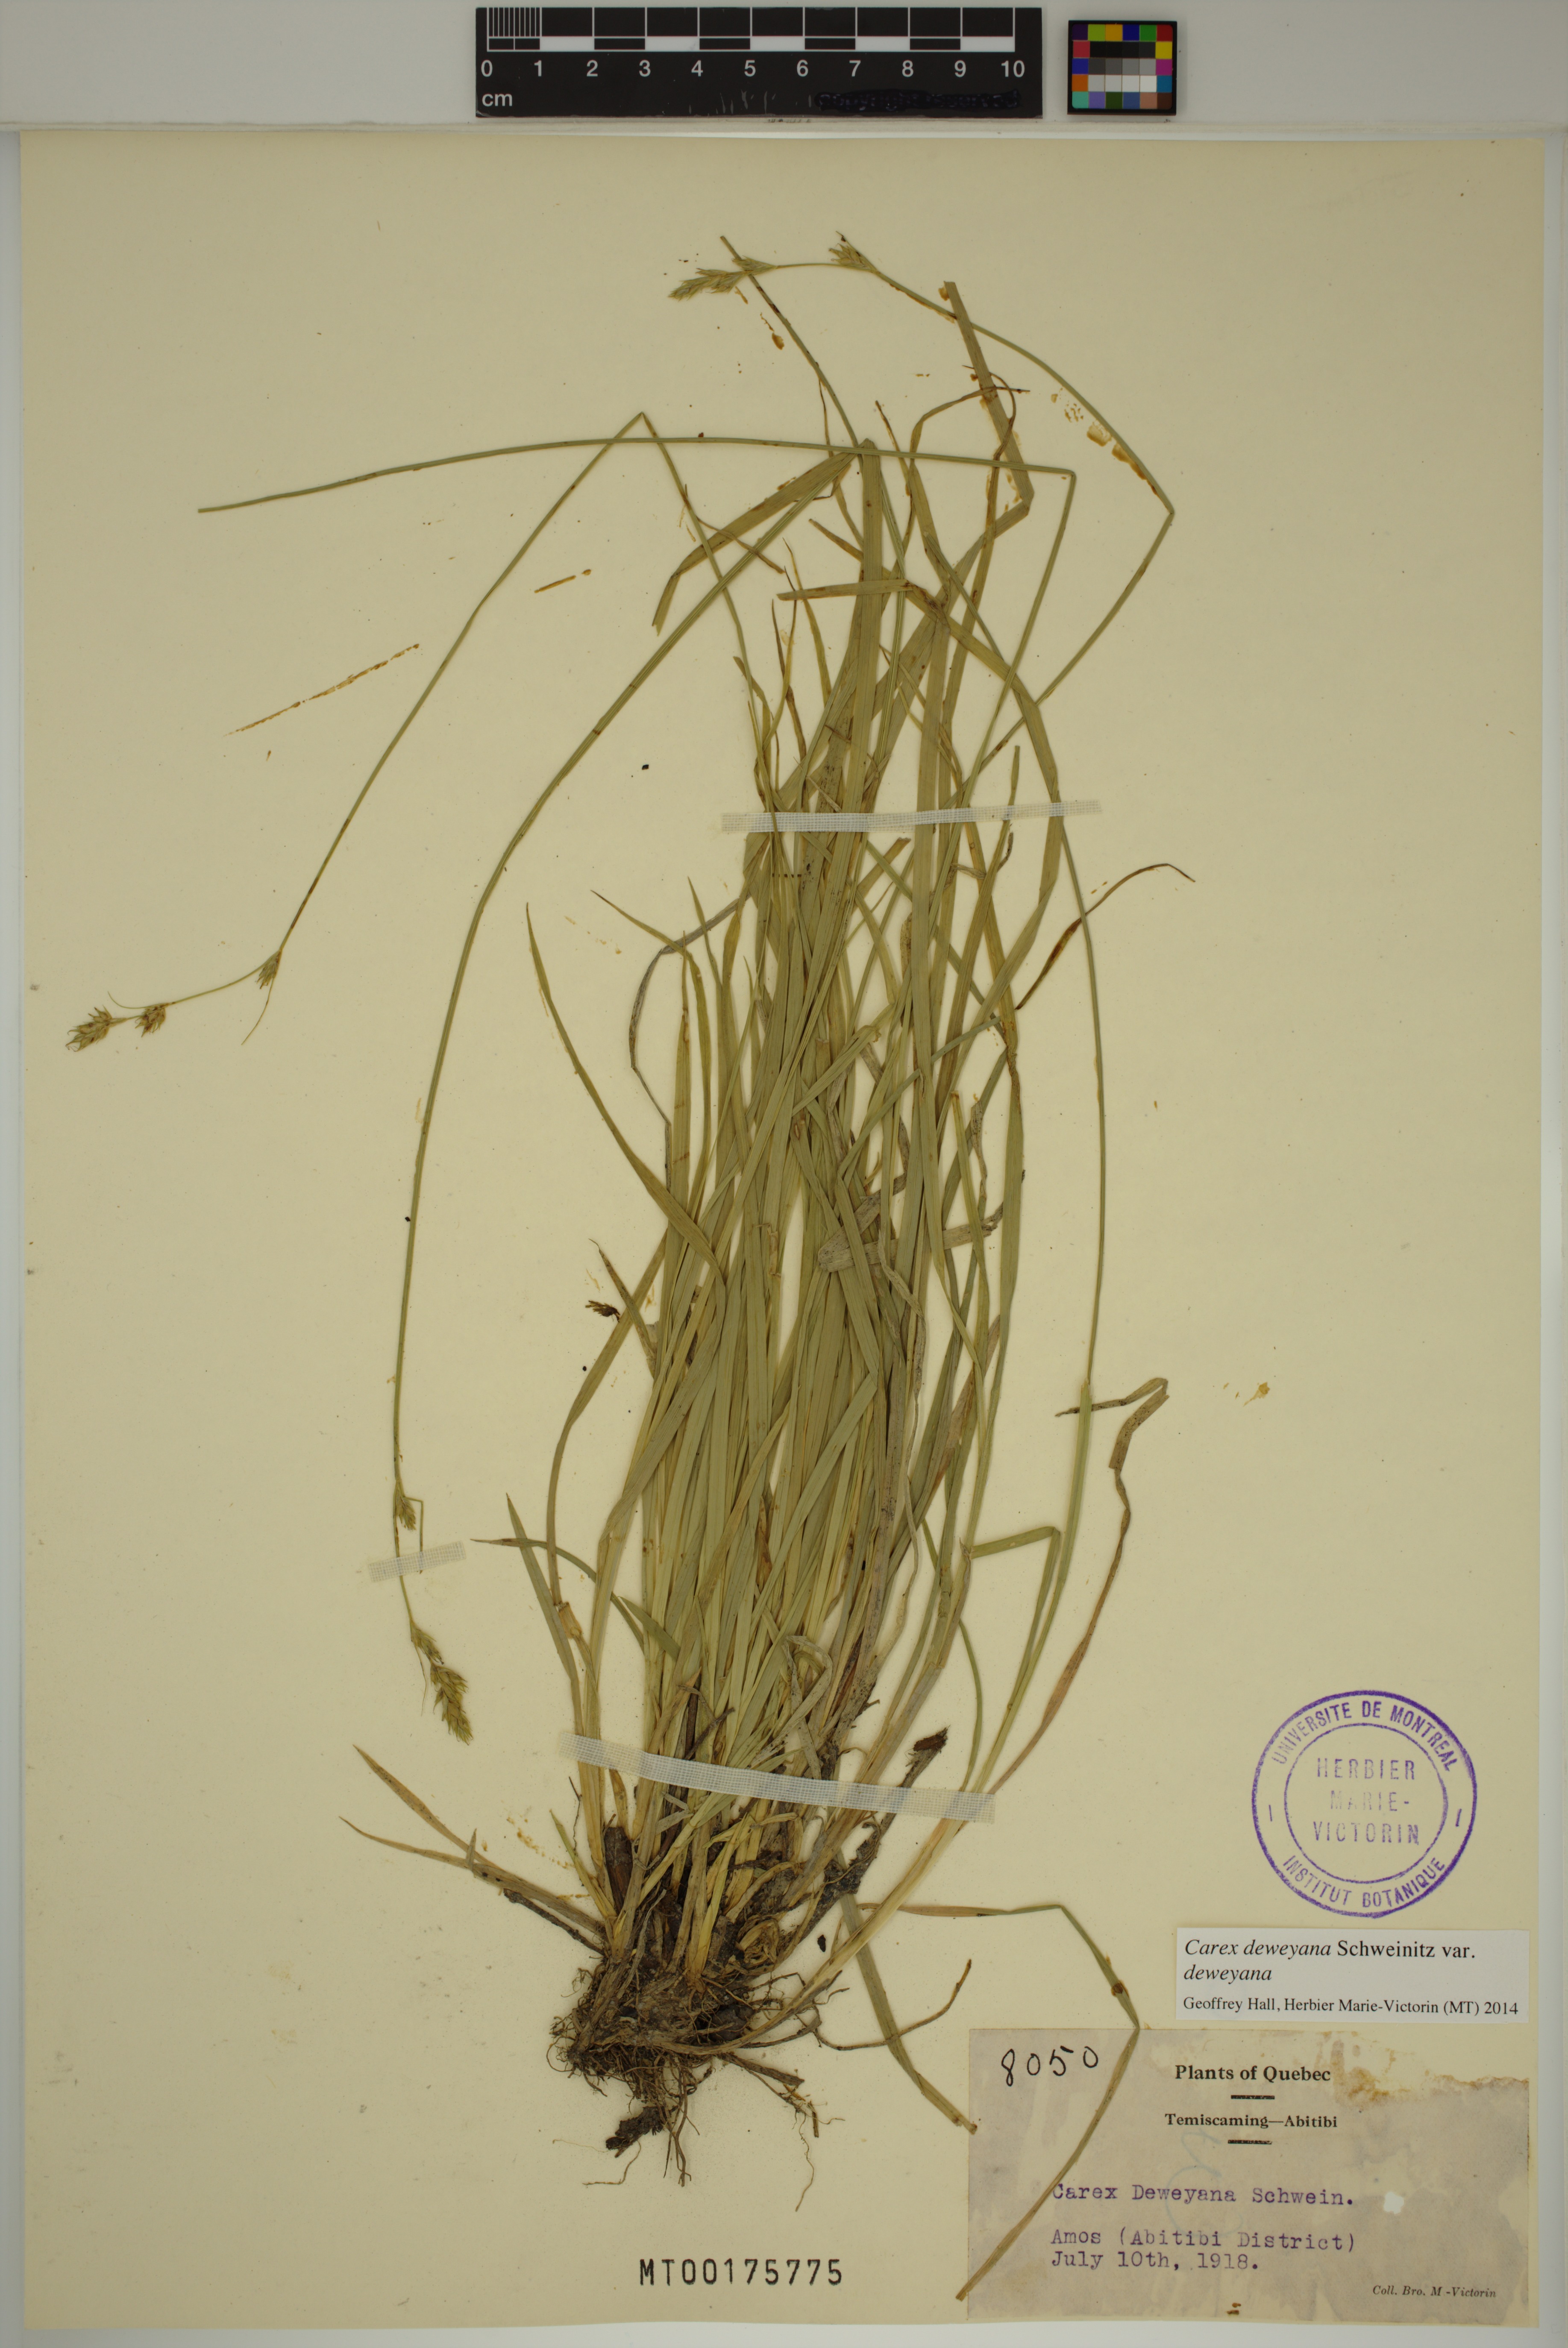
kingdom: Plantae
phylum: Tracheophyta
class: Liliopsida
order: Poales
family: Cyperaceae
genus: Carex
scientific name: Carex deweyana
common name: Dewey's sedge
